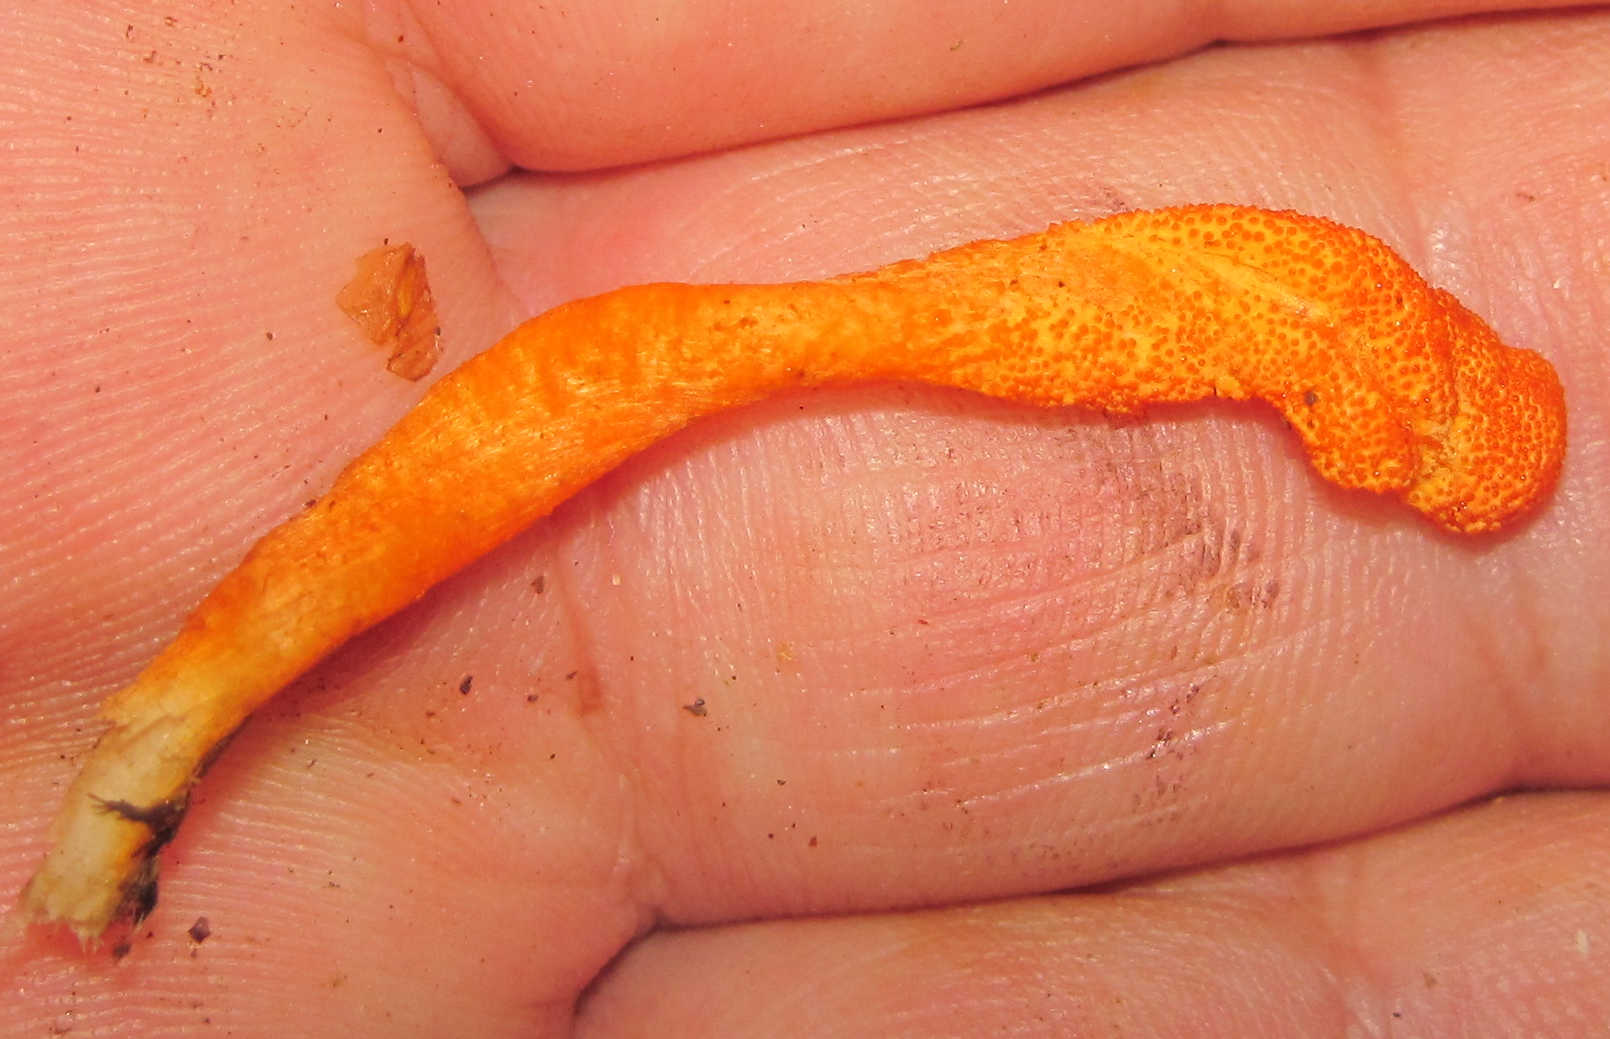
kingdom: Fungi
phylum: Ascomycota
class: Sordariomycetes
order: Hypocreales
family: Cordycipitaceae
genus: Cordyceps
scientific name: Cordyceps militaris
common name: puppe-snyltekølle
